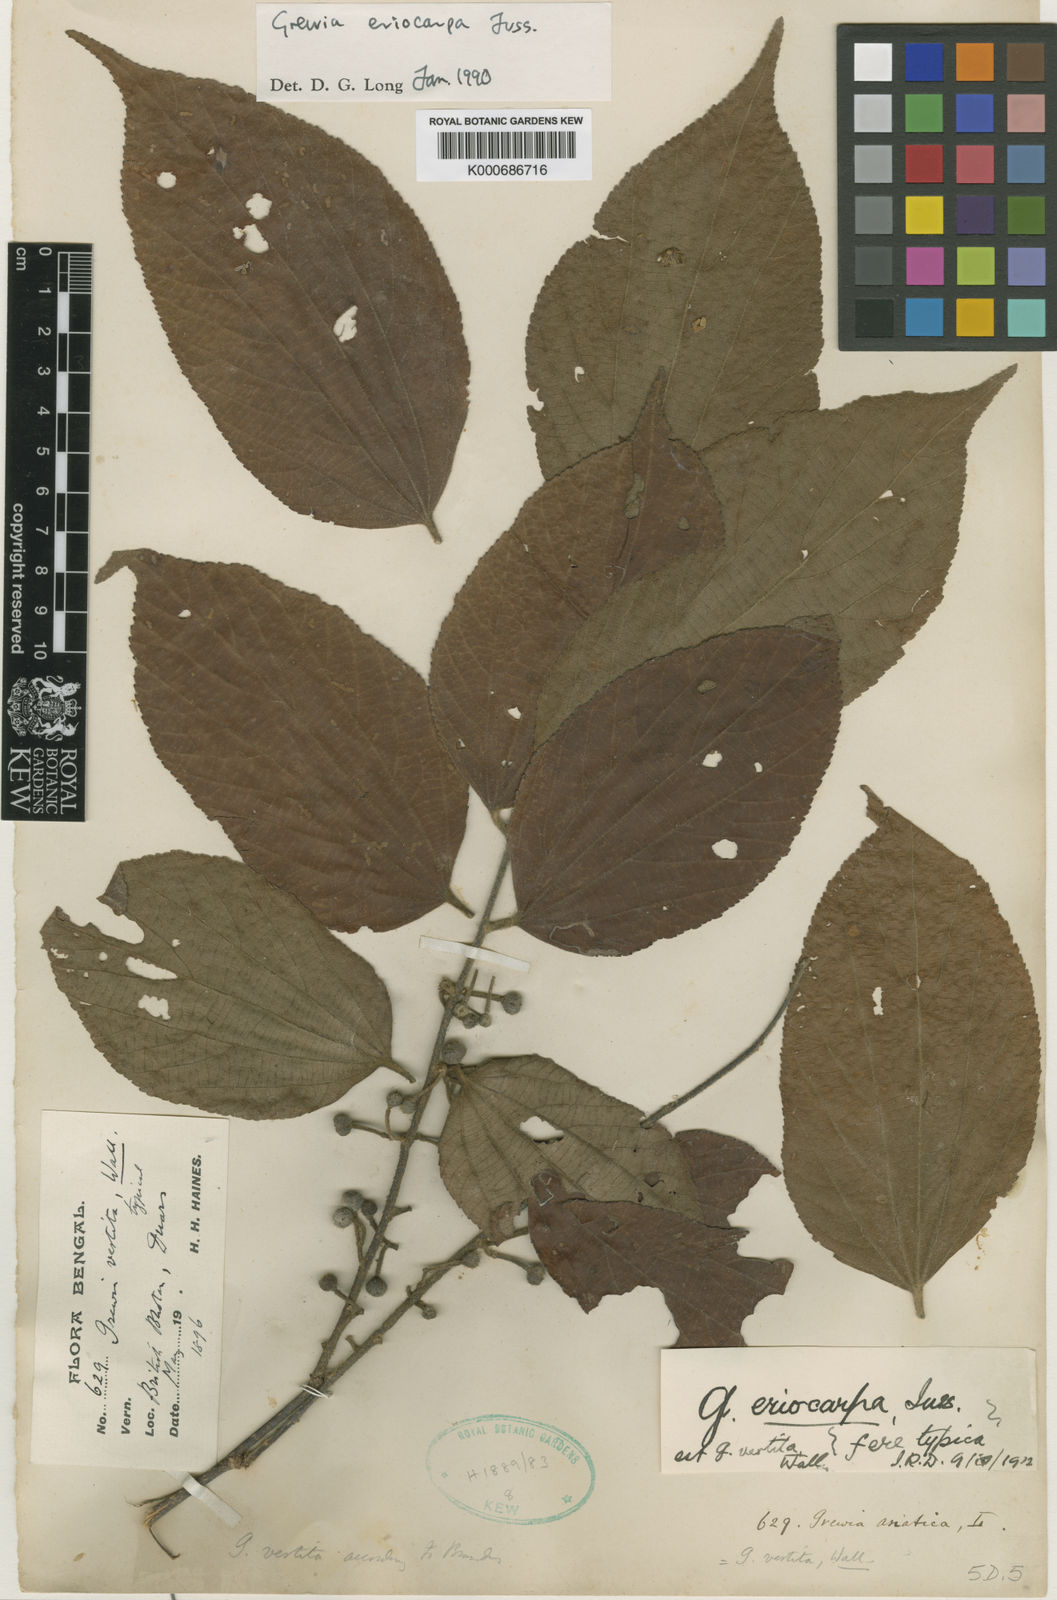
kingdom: Plantae
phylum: Tracheophyta
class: Magnoliopsida
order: Malvales
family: Malvaceae
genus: Grewia
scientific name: Grewia eriocarpa
